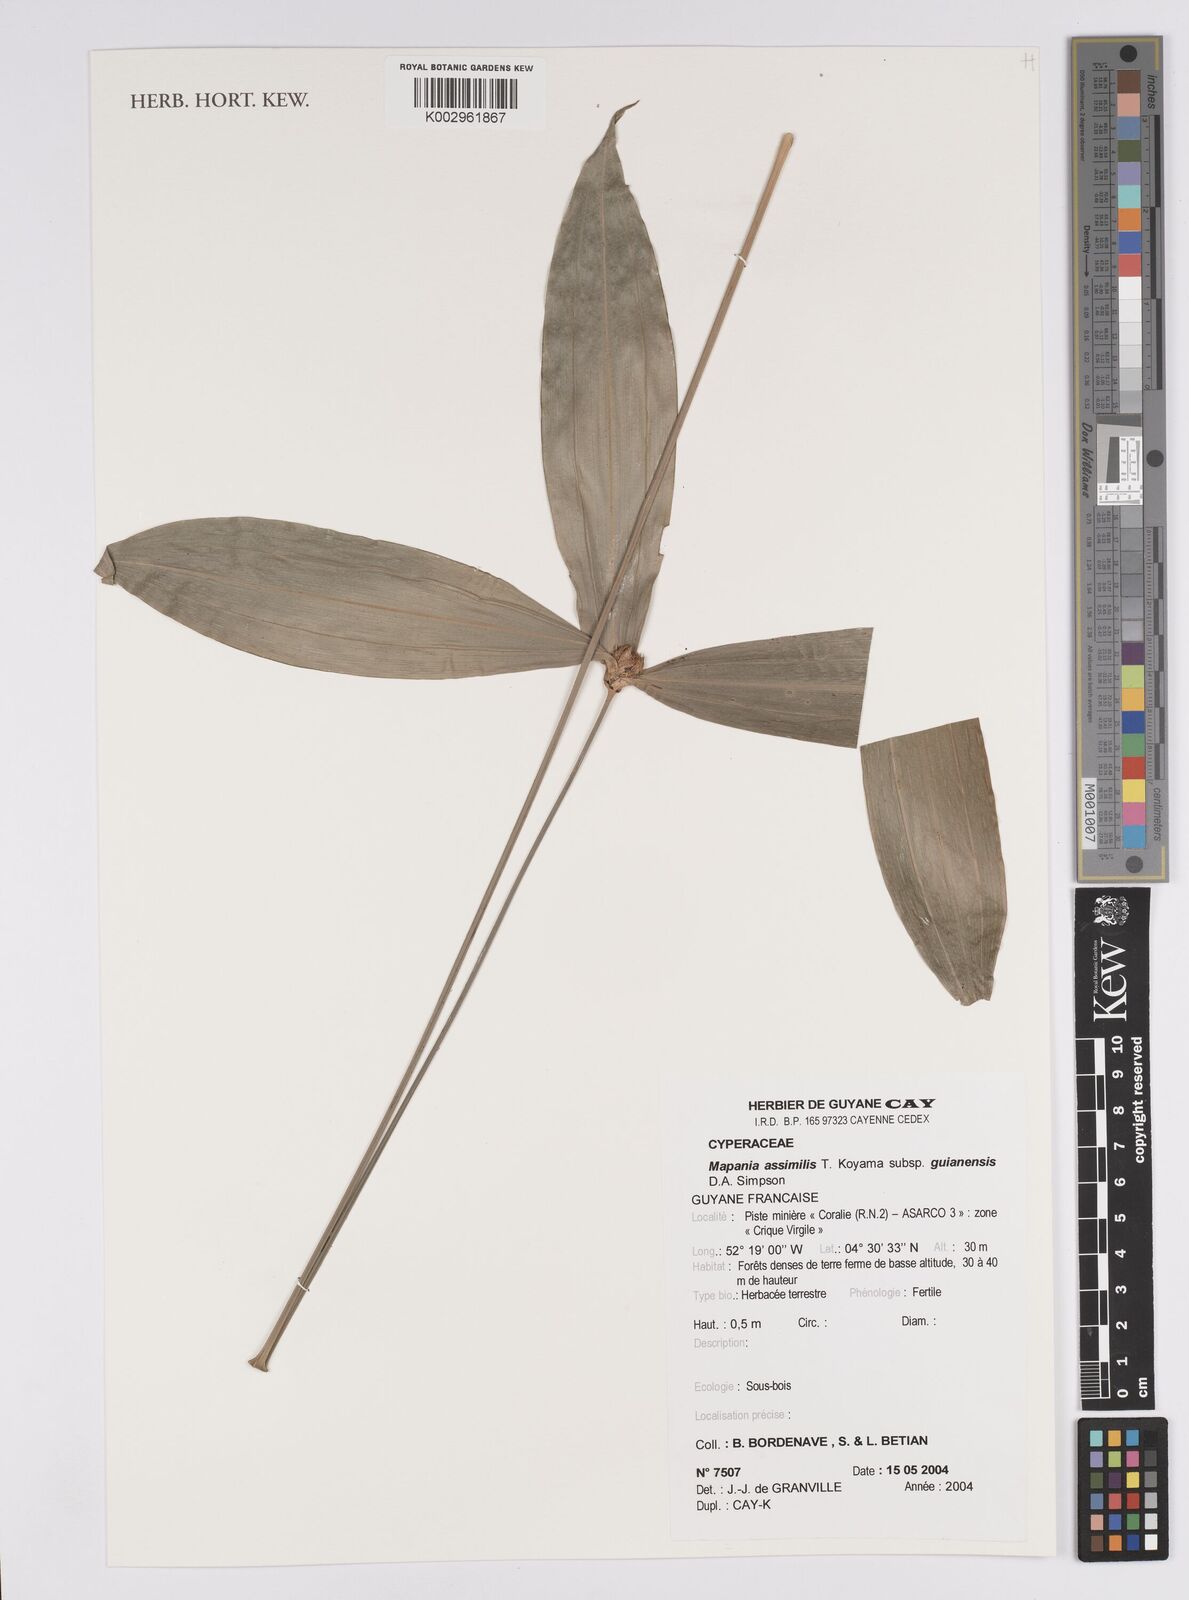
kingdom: Plantae
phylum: Tracheophyta
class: Liliopsida
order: Poales
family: Cyperaceae
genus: Mapania
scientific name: Mapania assimilis
